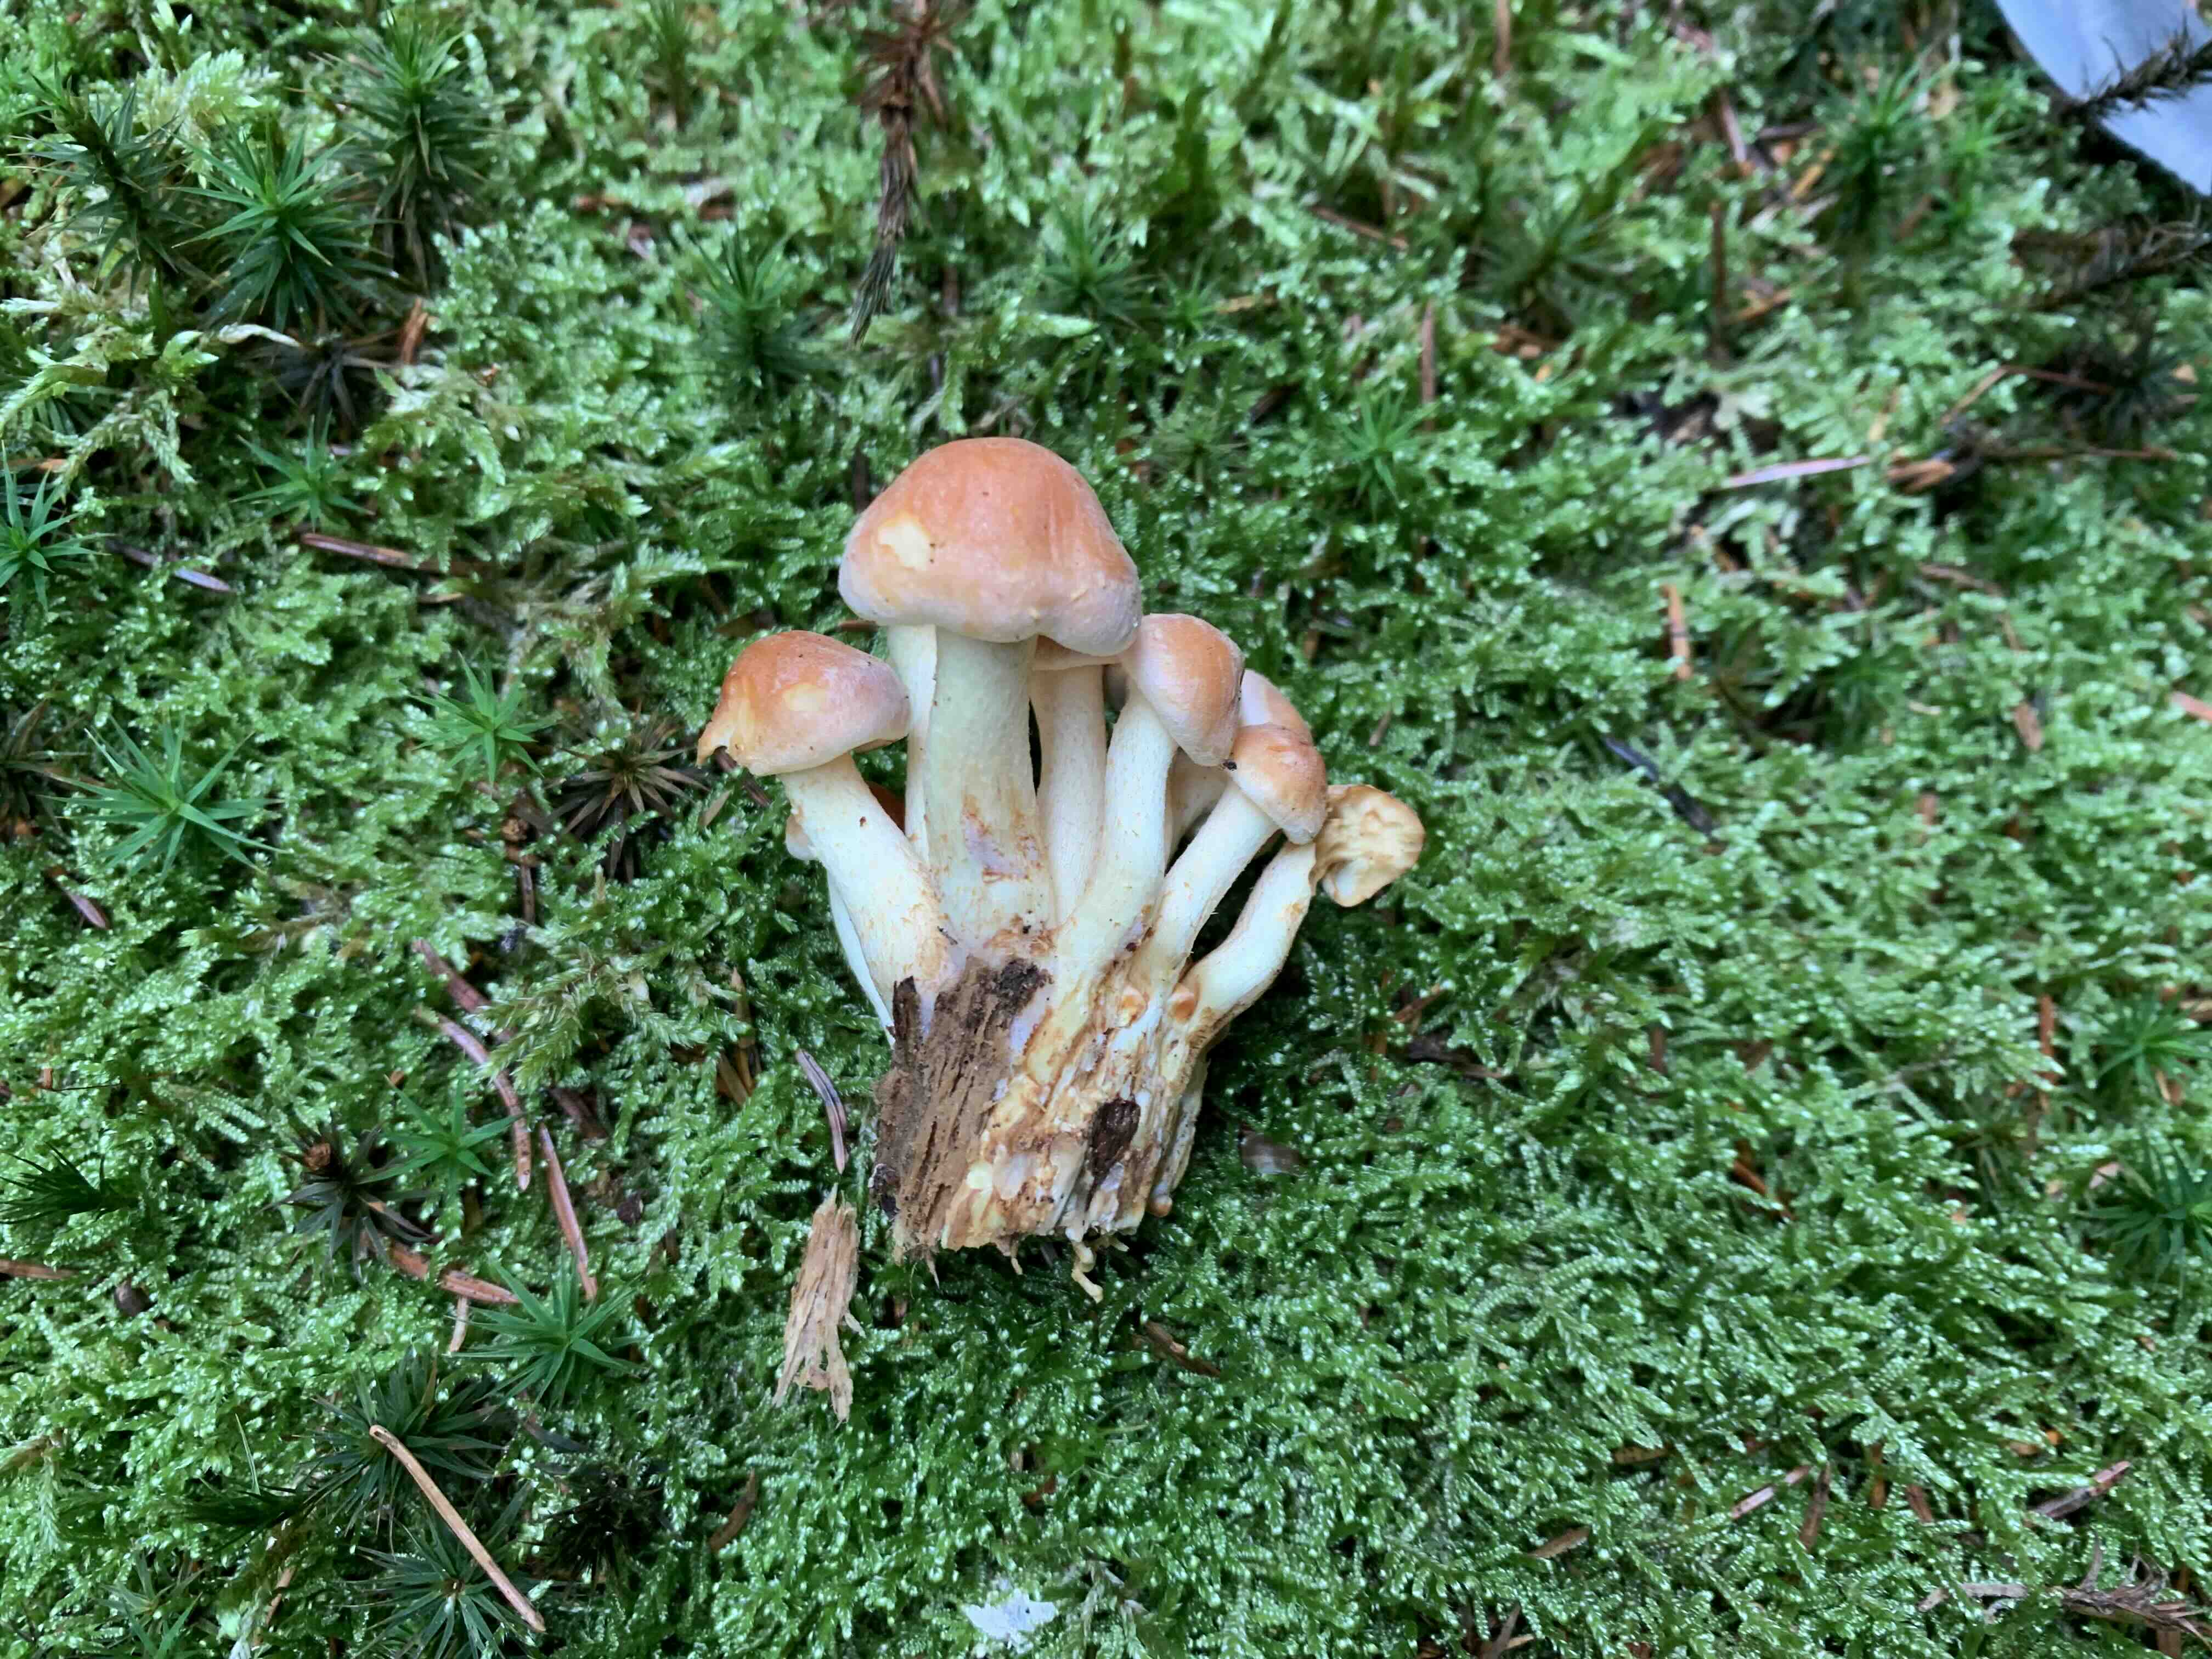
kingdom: Fungi
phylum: Basidiomycota
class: Agaricomycetes
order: Agaricales
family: Strophariaceae
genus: Hypholoma
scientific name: Hypholoma fasciculare
